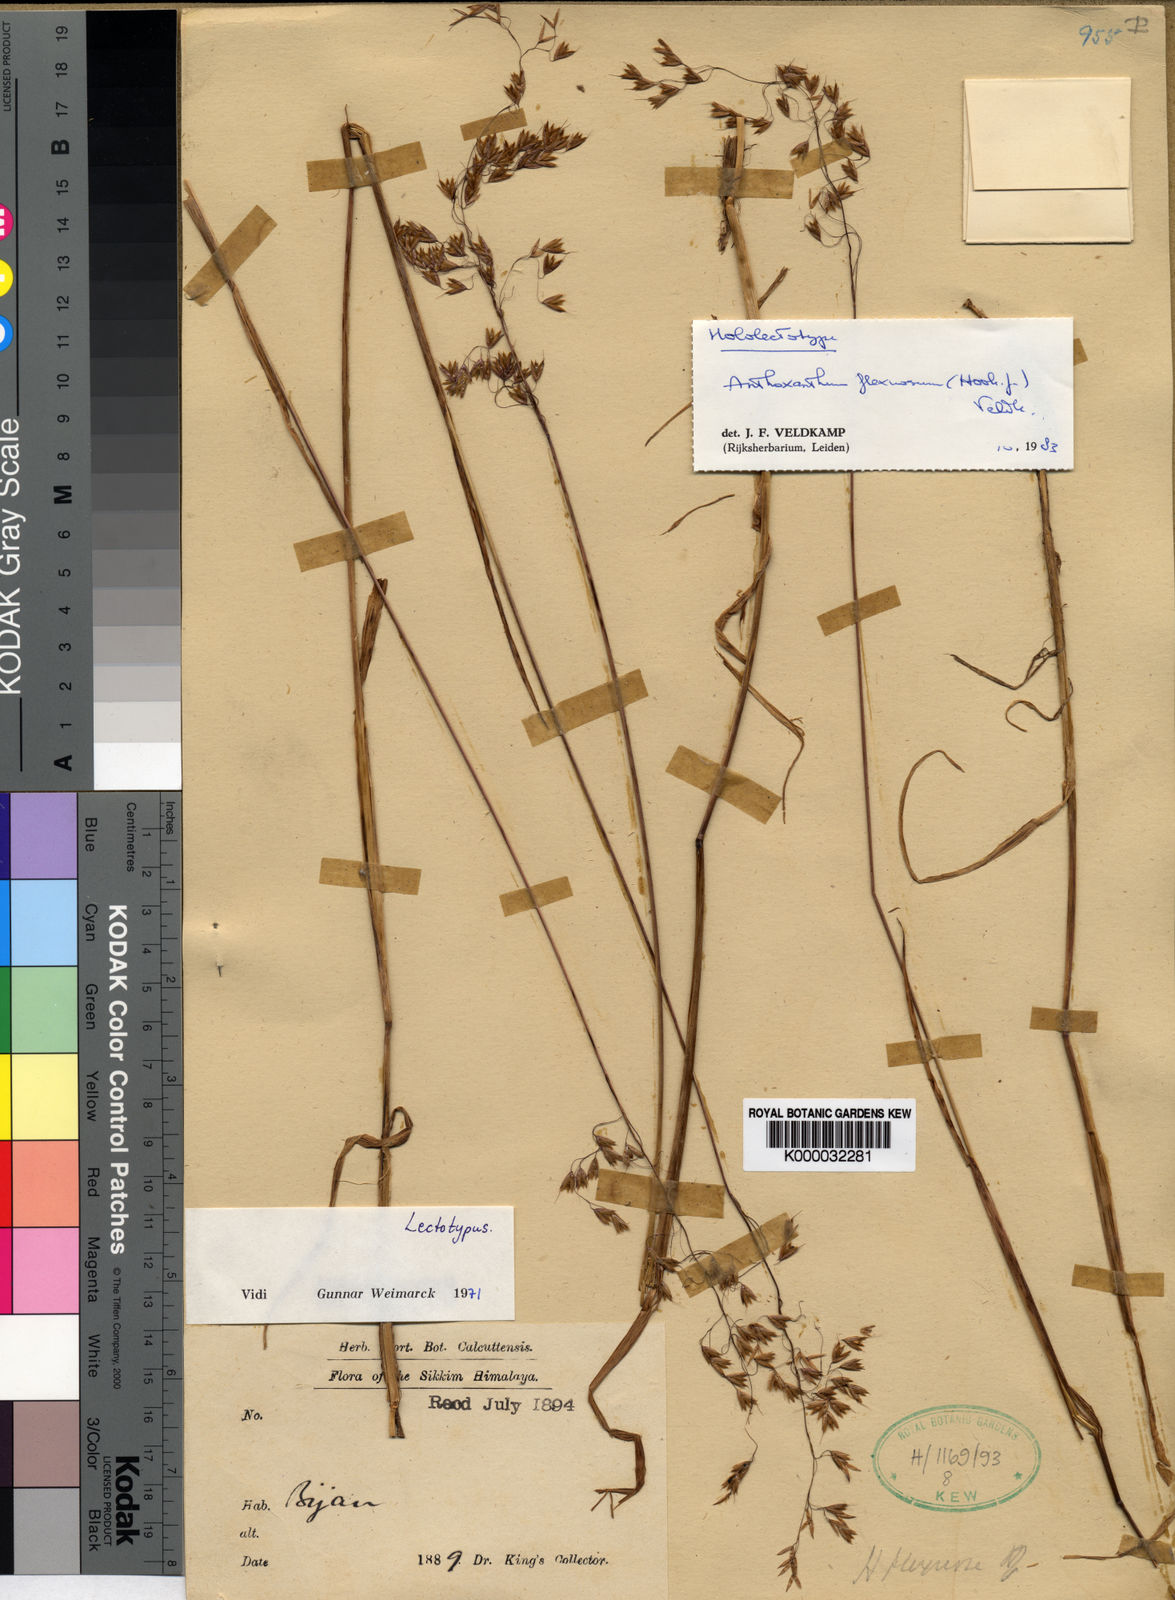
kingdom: Plantae
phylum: Tracheophyta
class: Liliopsida
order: Poales
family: Poaceae
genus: Anthoxanthum
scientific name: Anthoxanthum flexuosum
